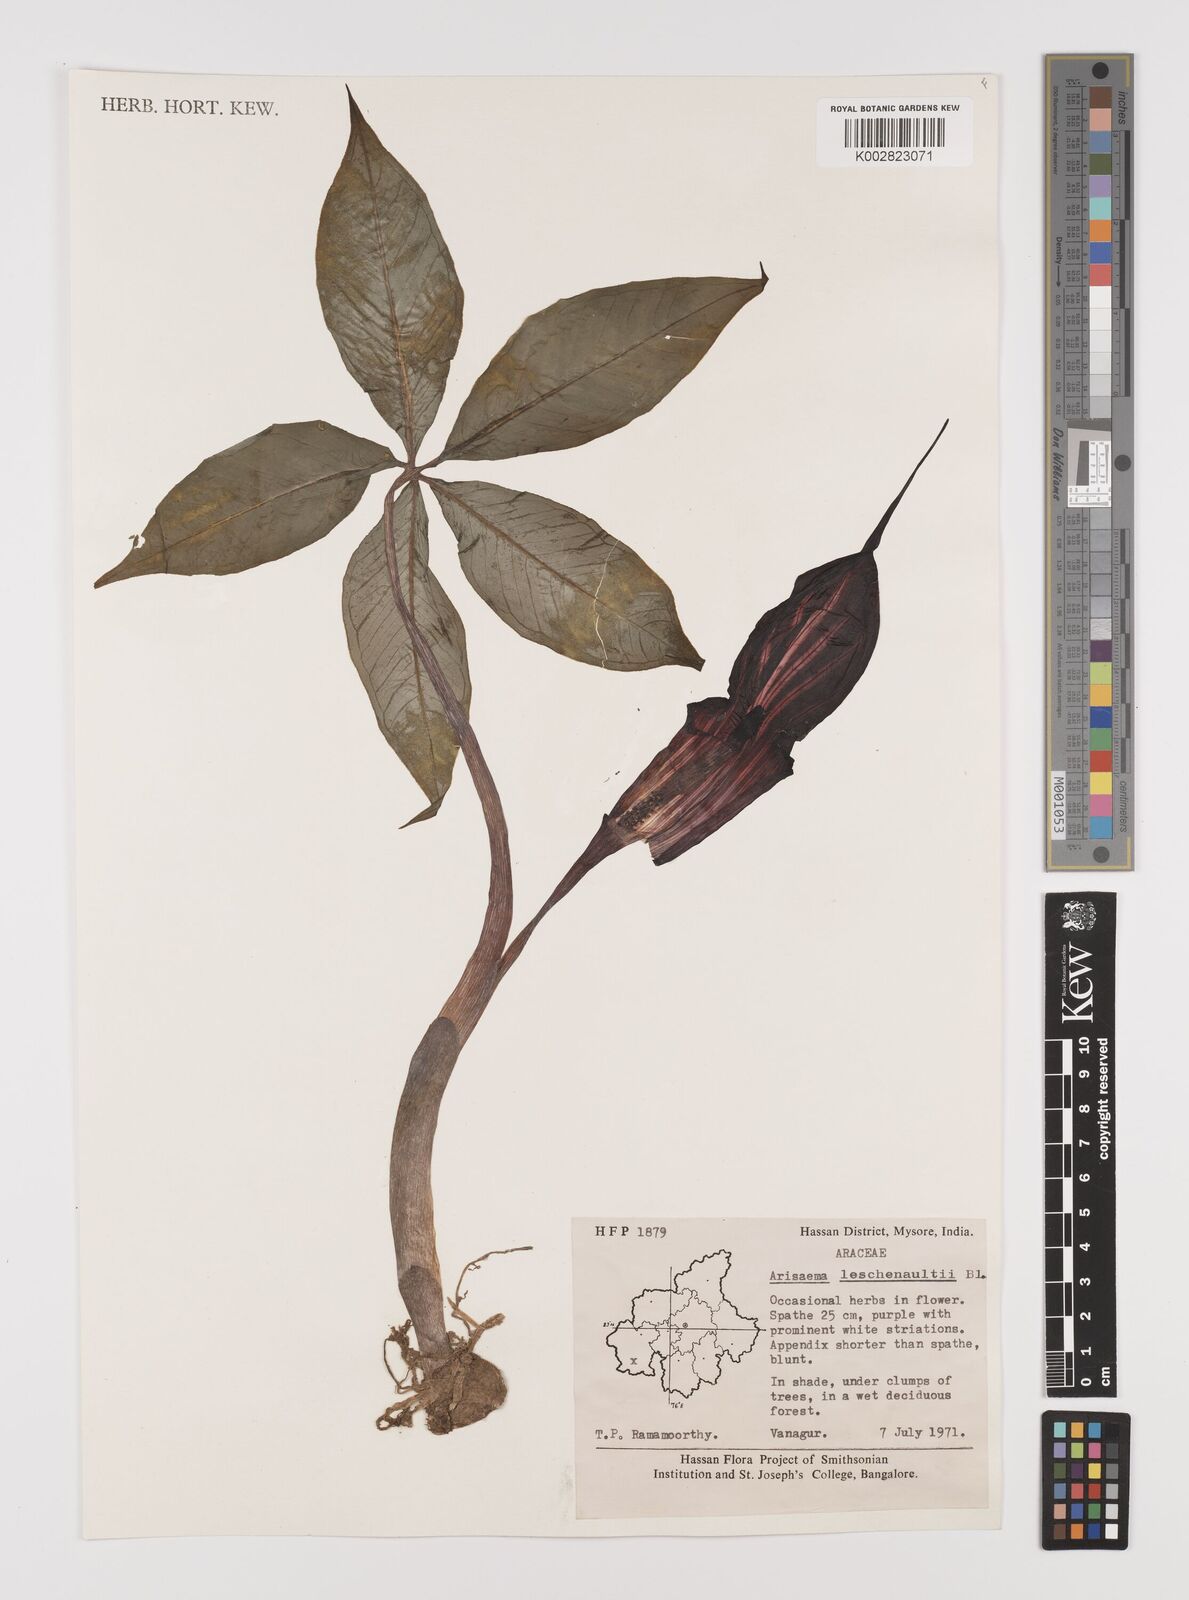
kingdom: Plantae
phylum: Tracheophyta
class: Liliopsida
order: Alismatales
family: Araceae
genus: Arisaema
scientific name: Arisaema leschenaultii
